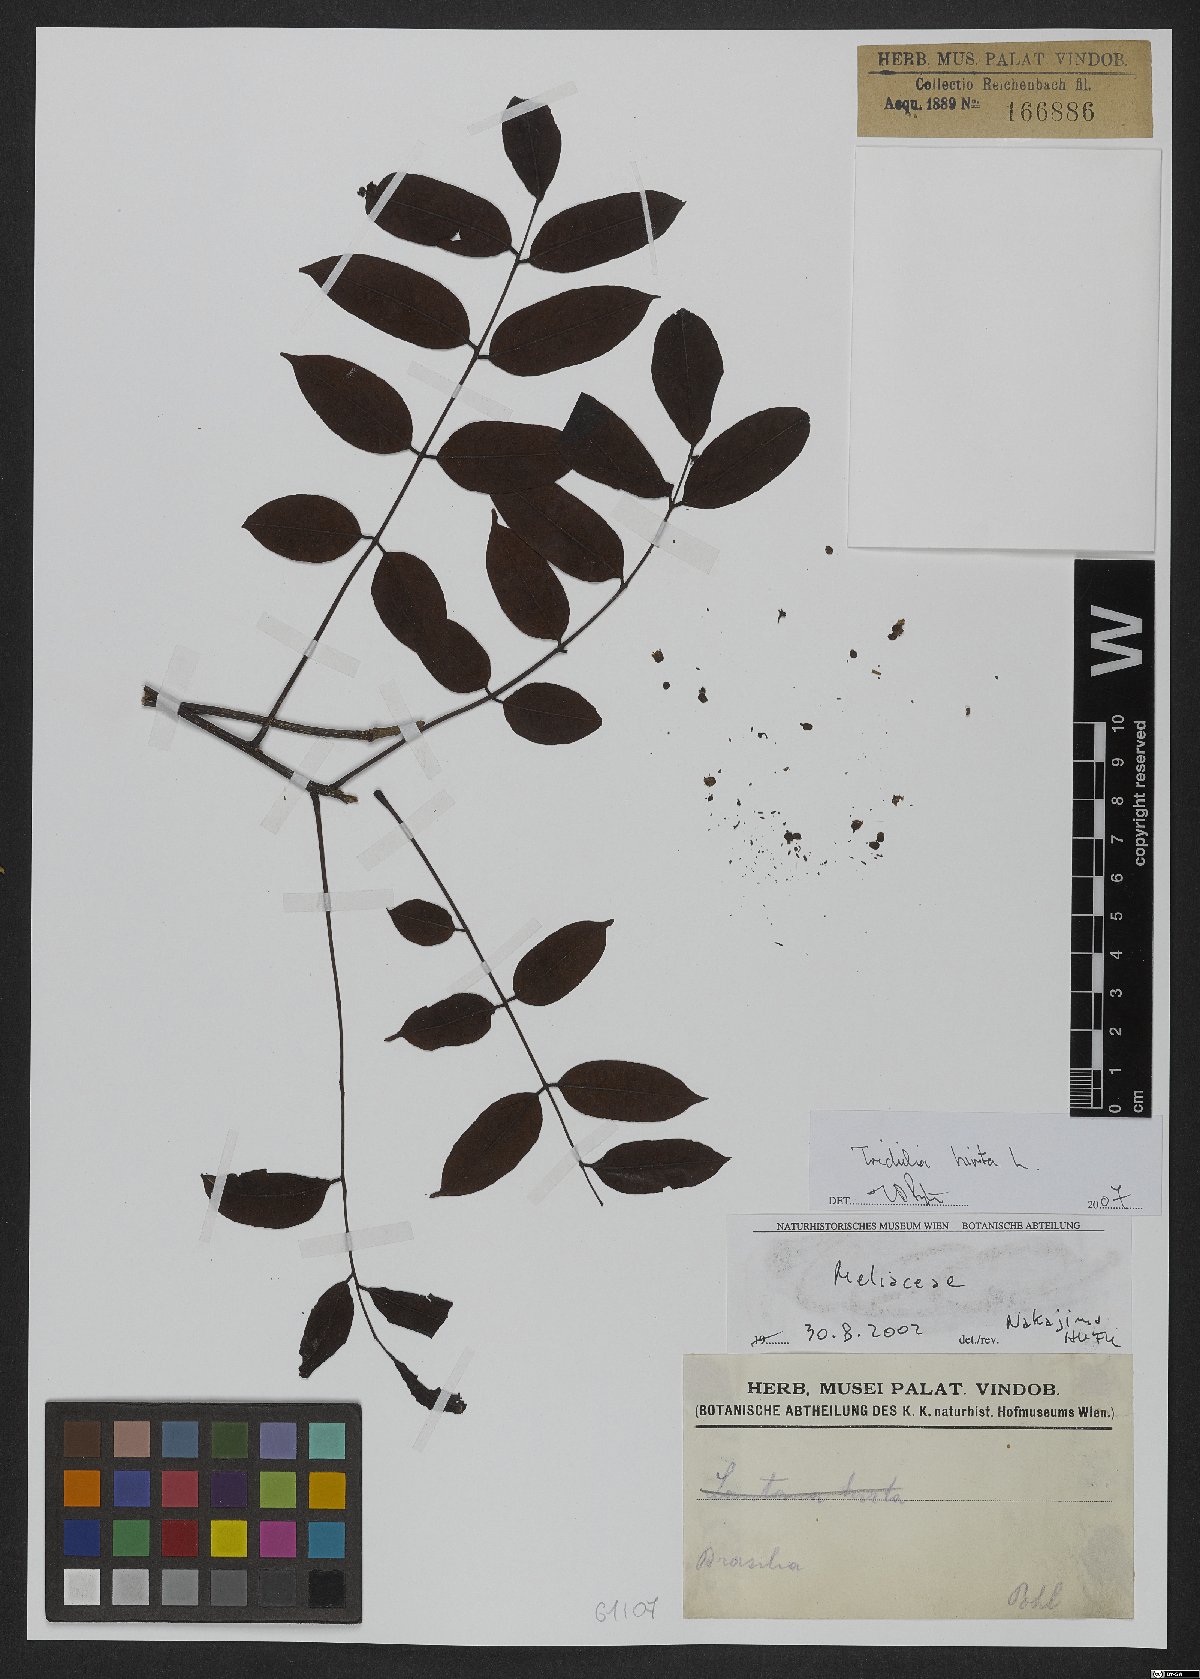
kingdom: Plantae
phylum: Tracheophyta
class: Magnoliopsida
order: Sapindales
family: Meliaceae
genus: Trichilia
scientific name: Trichilia hirta
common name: Red-cedar
